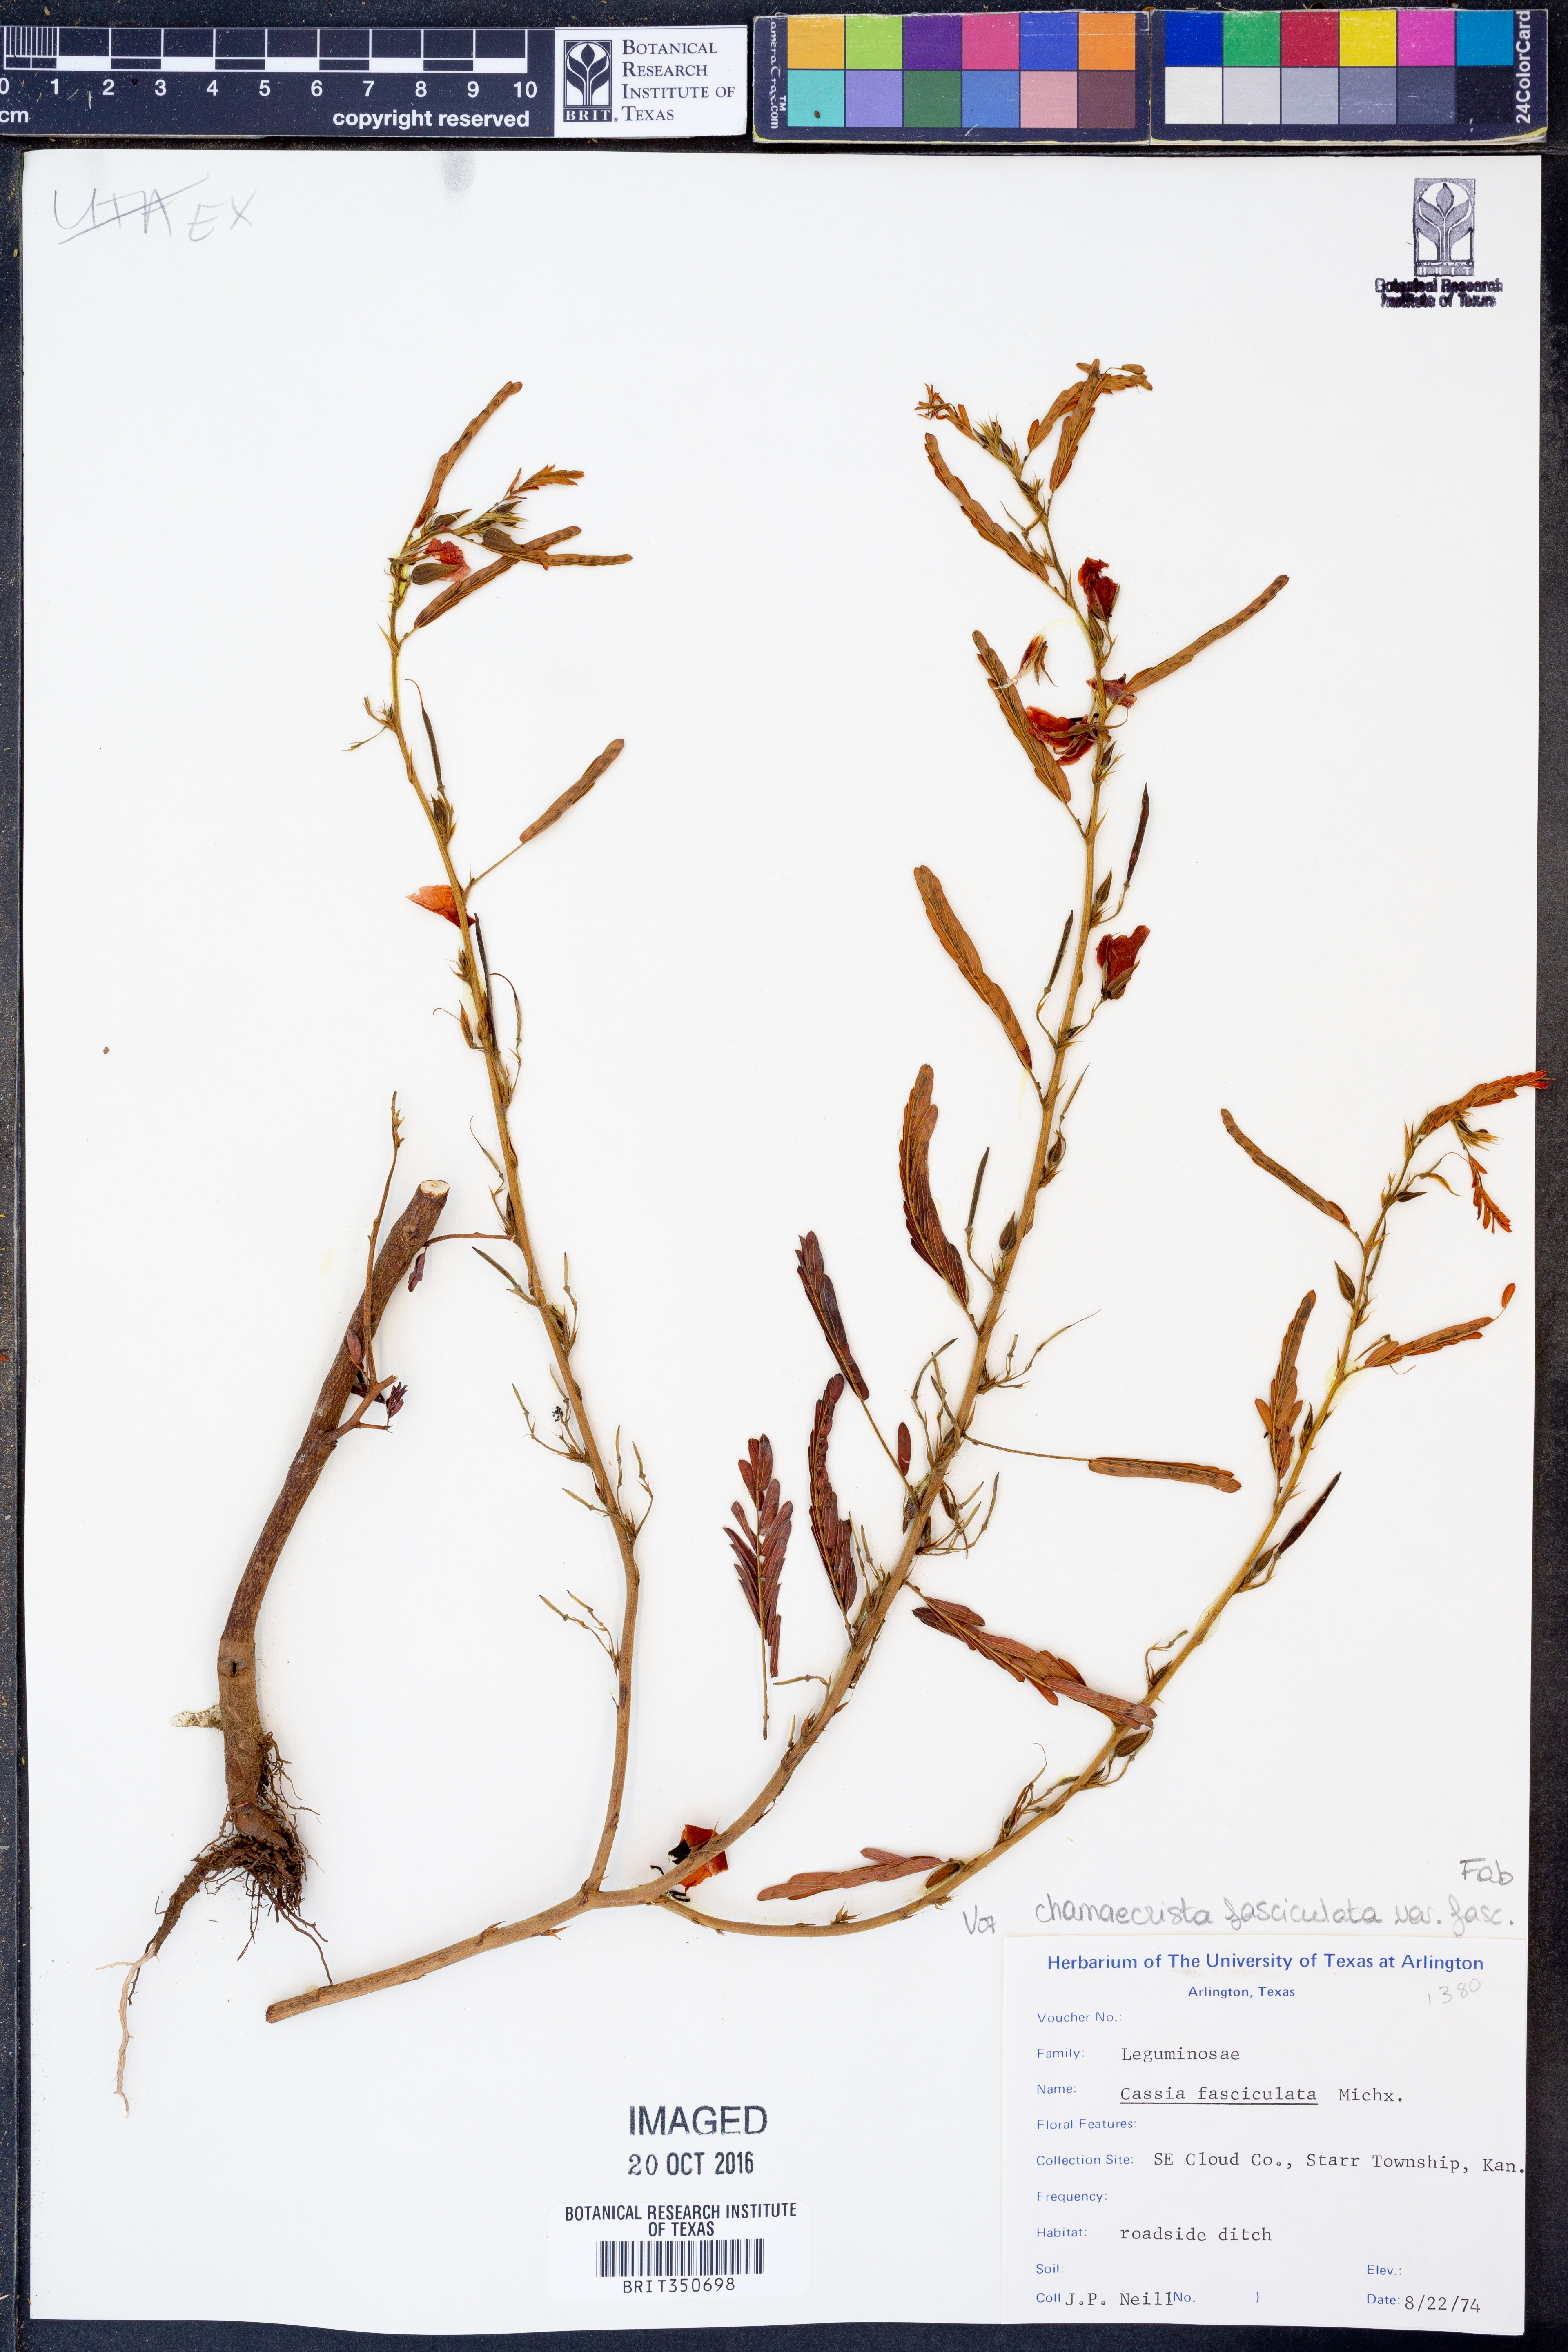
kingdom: Plantae
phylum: Tracheophyta
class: Magnoliopsida
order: Fabales
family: Fabaceae
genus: Chamaecrista
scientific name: Chamaecrista fasciculata
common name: Golden cassia
